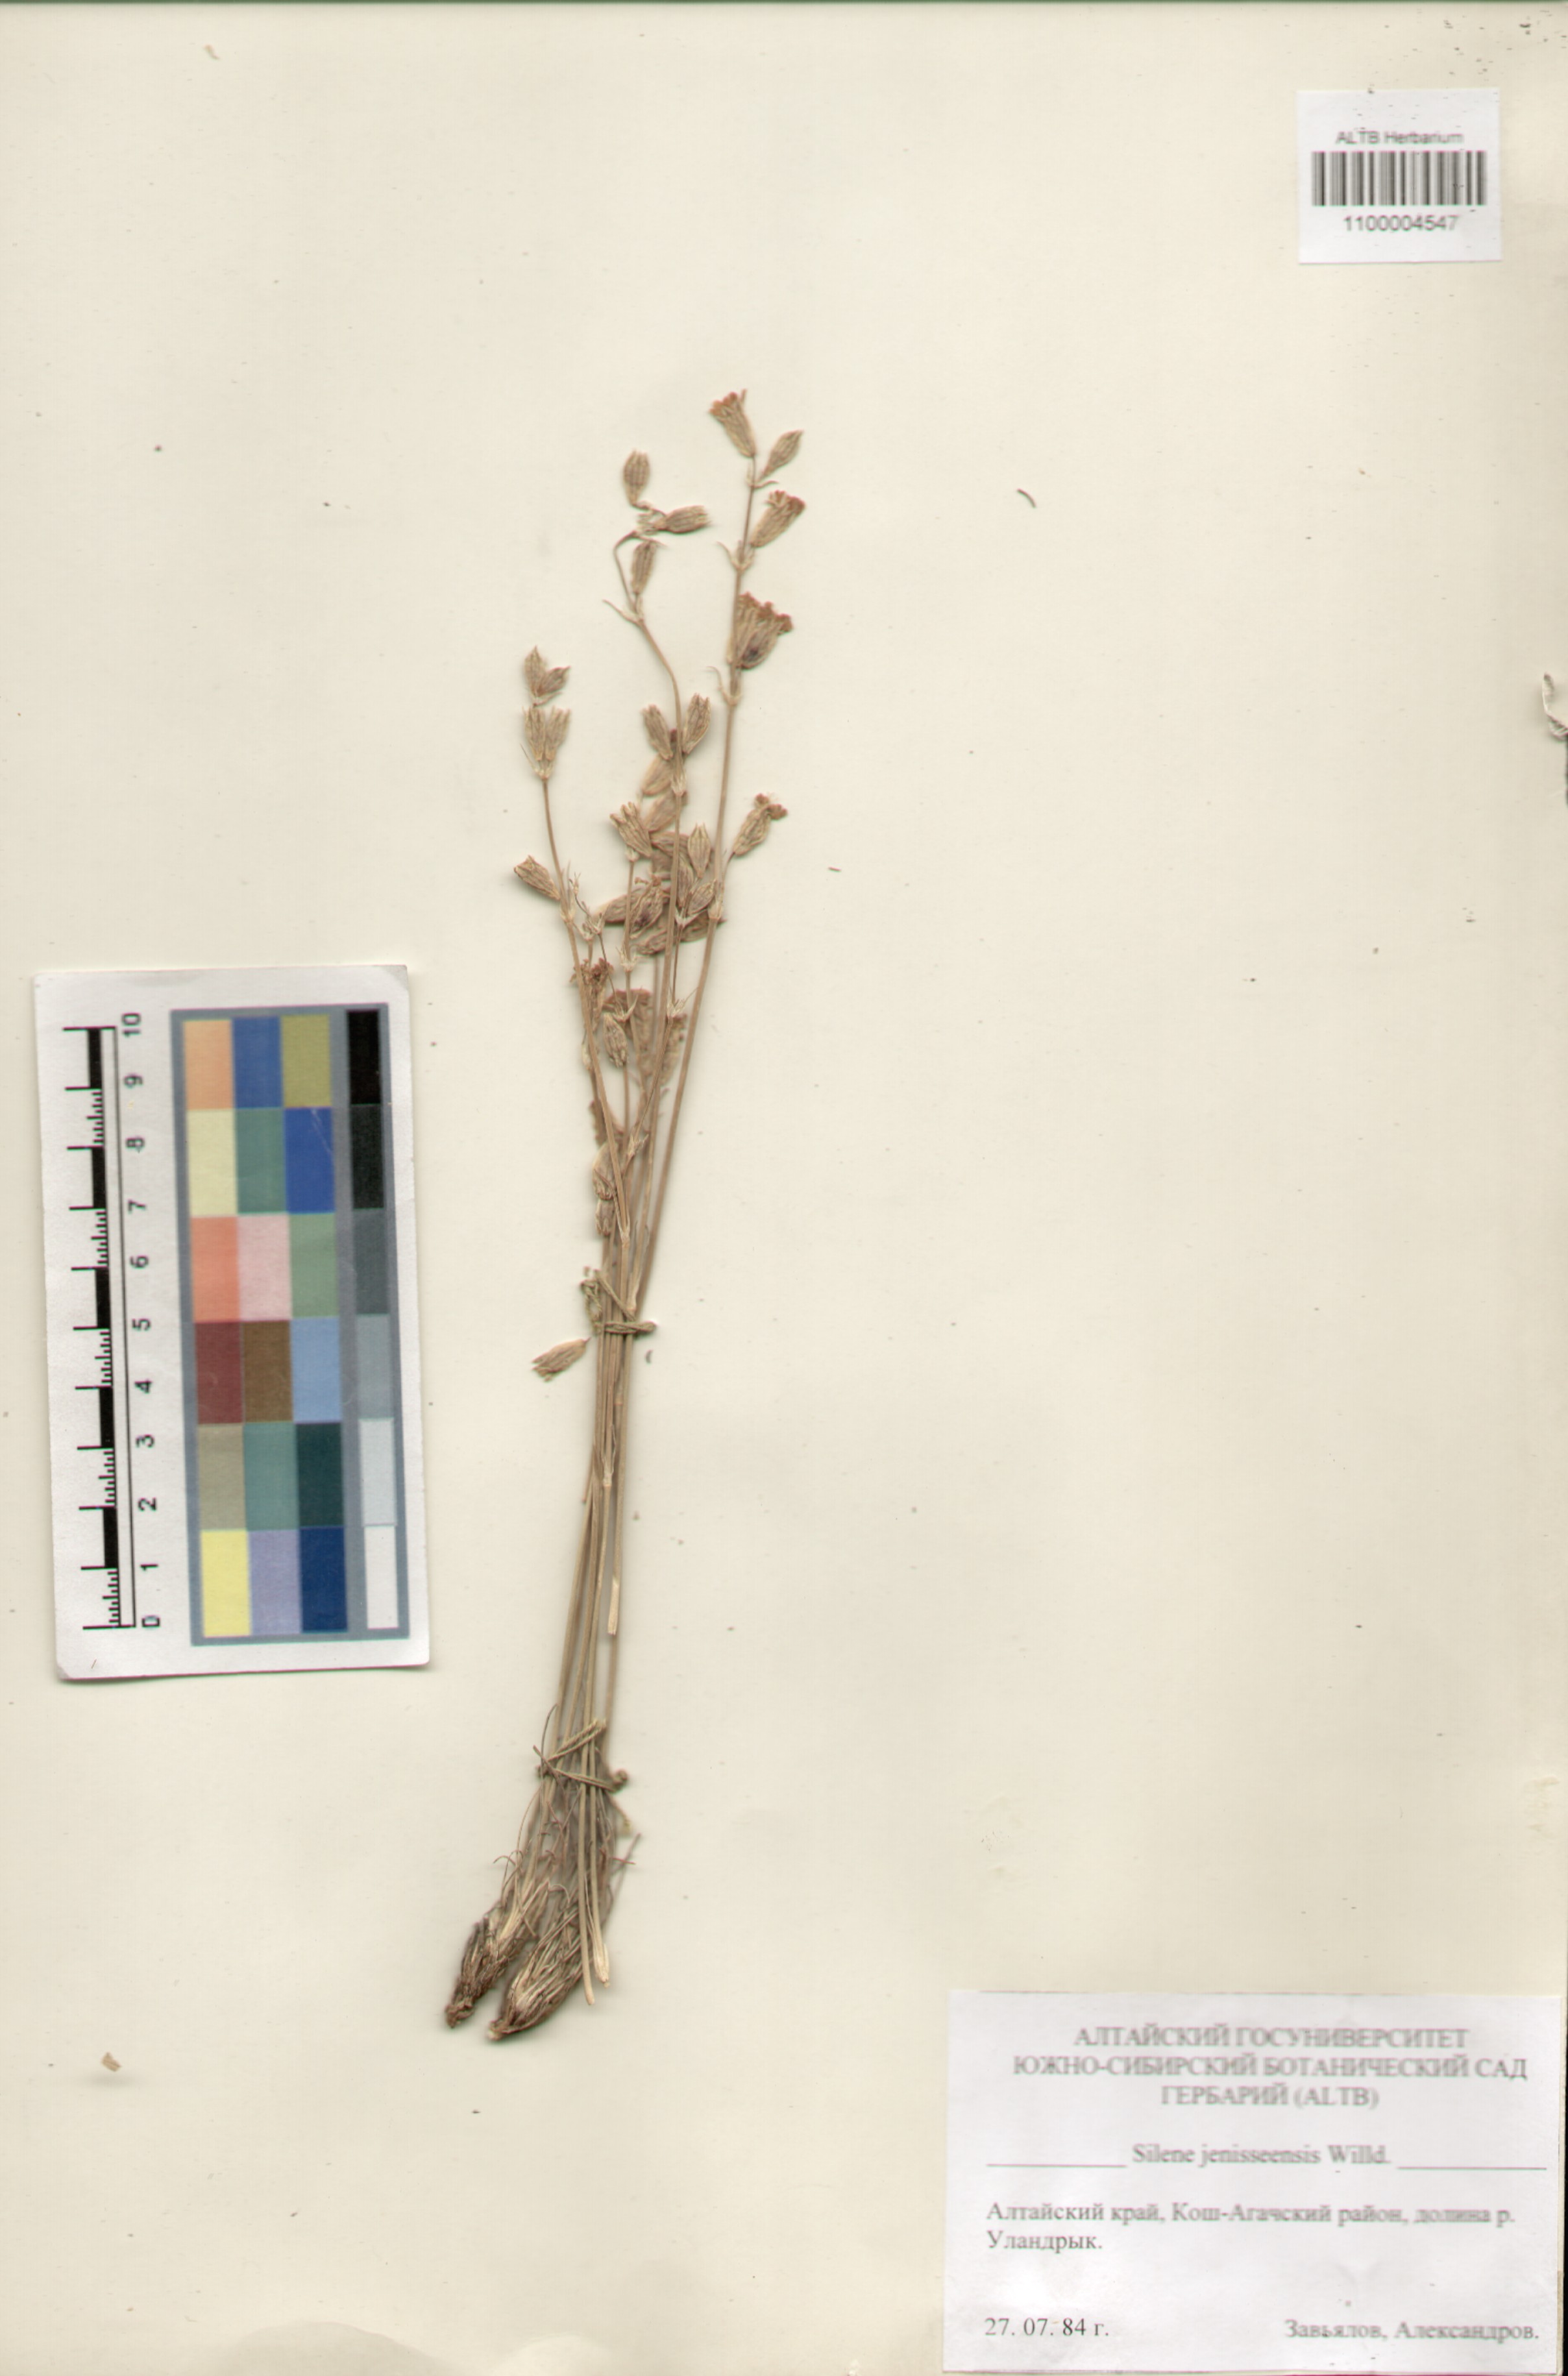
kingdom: Plantae
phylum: Tracheophyta
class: Magnoliopsida
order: Caryophyllales
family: Caryophyllaceae
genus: Silene
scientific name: Silene jeniseensis
